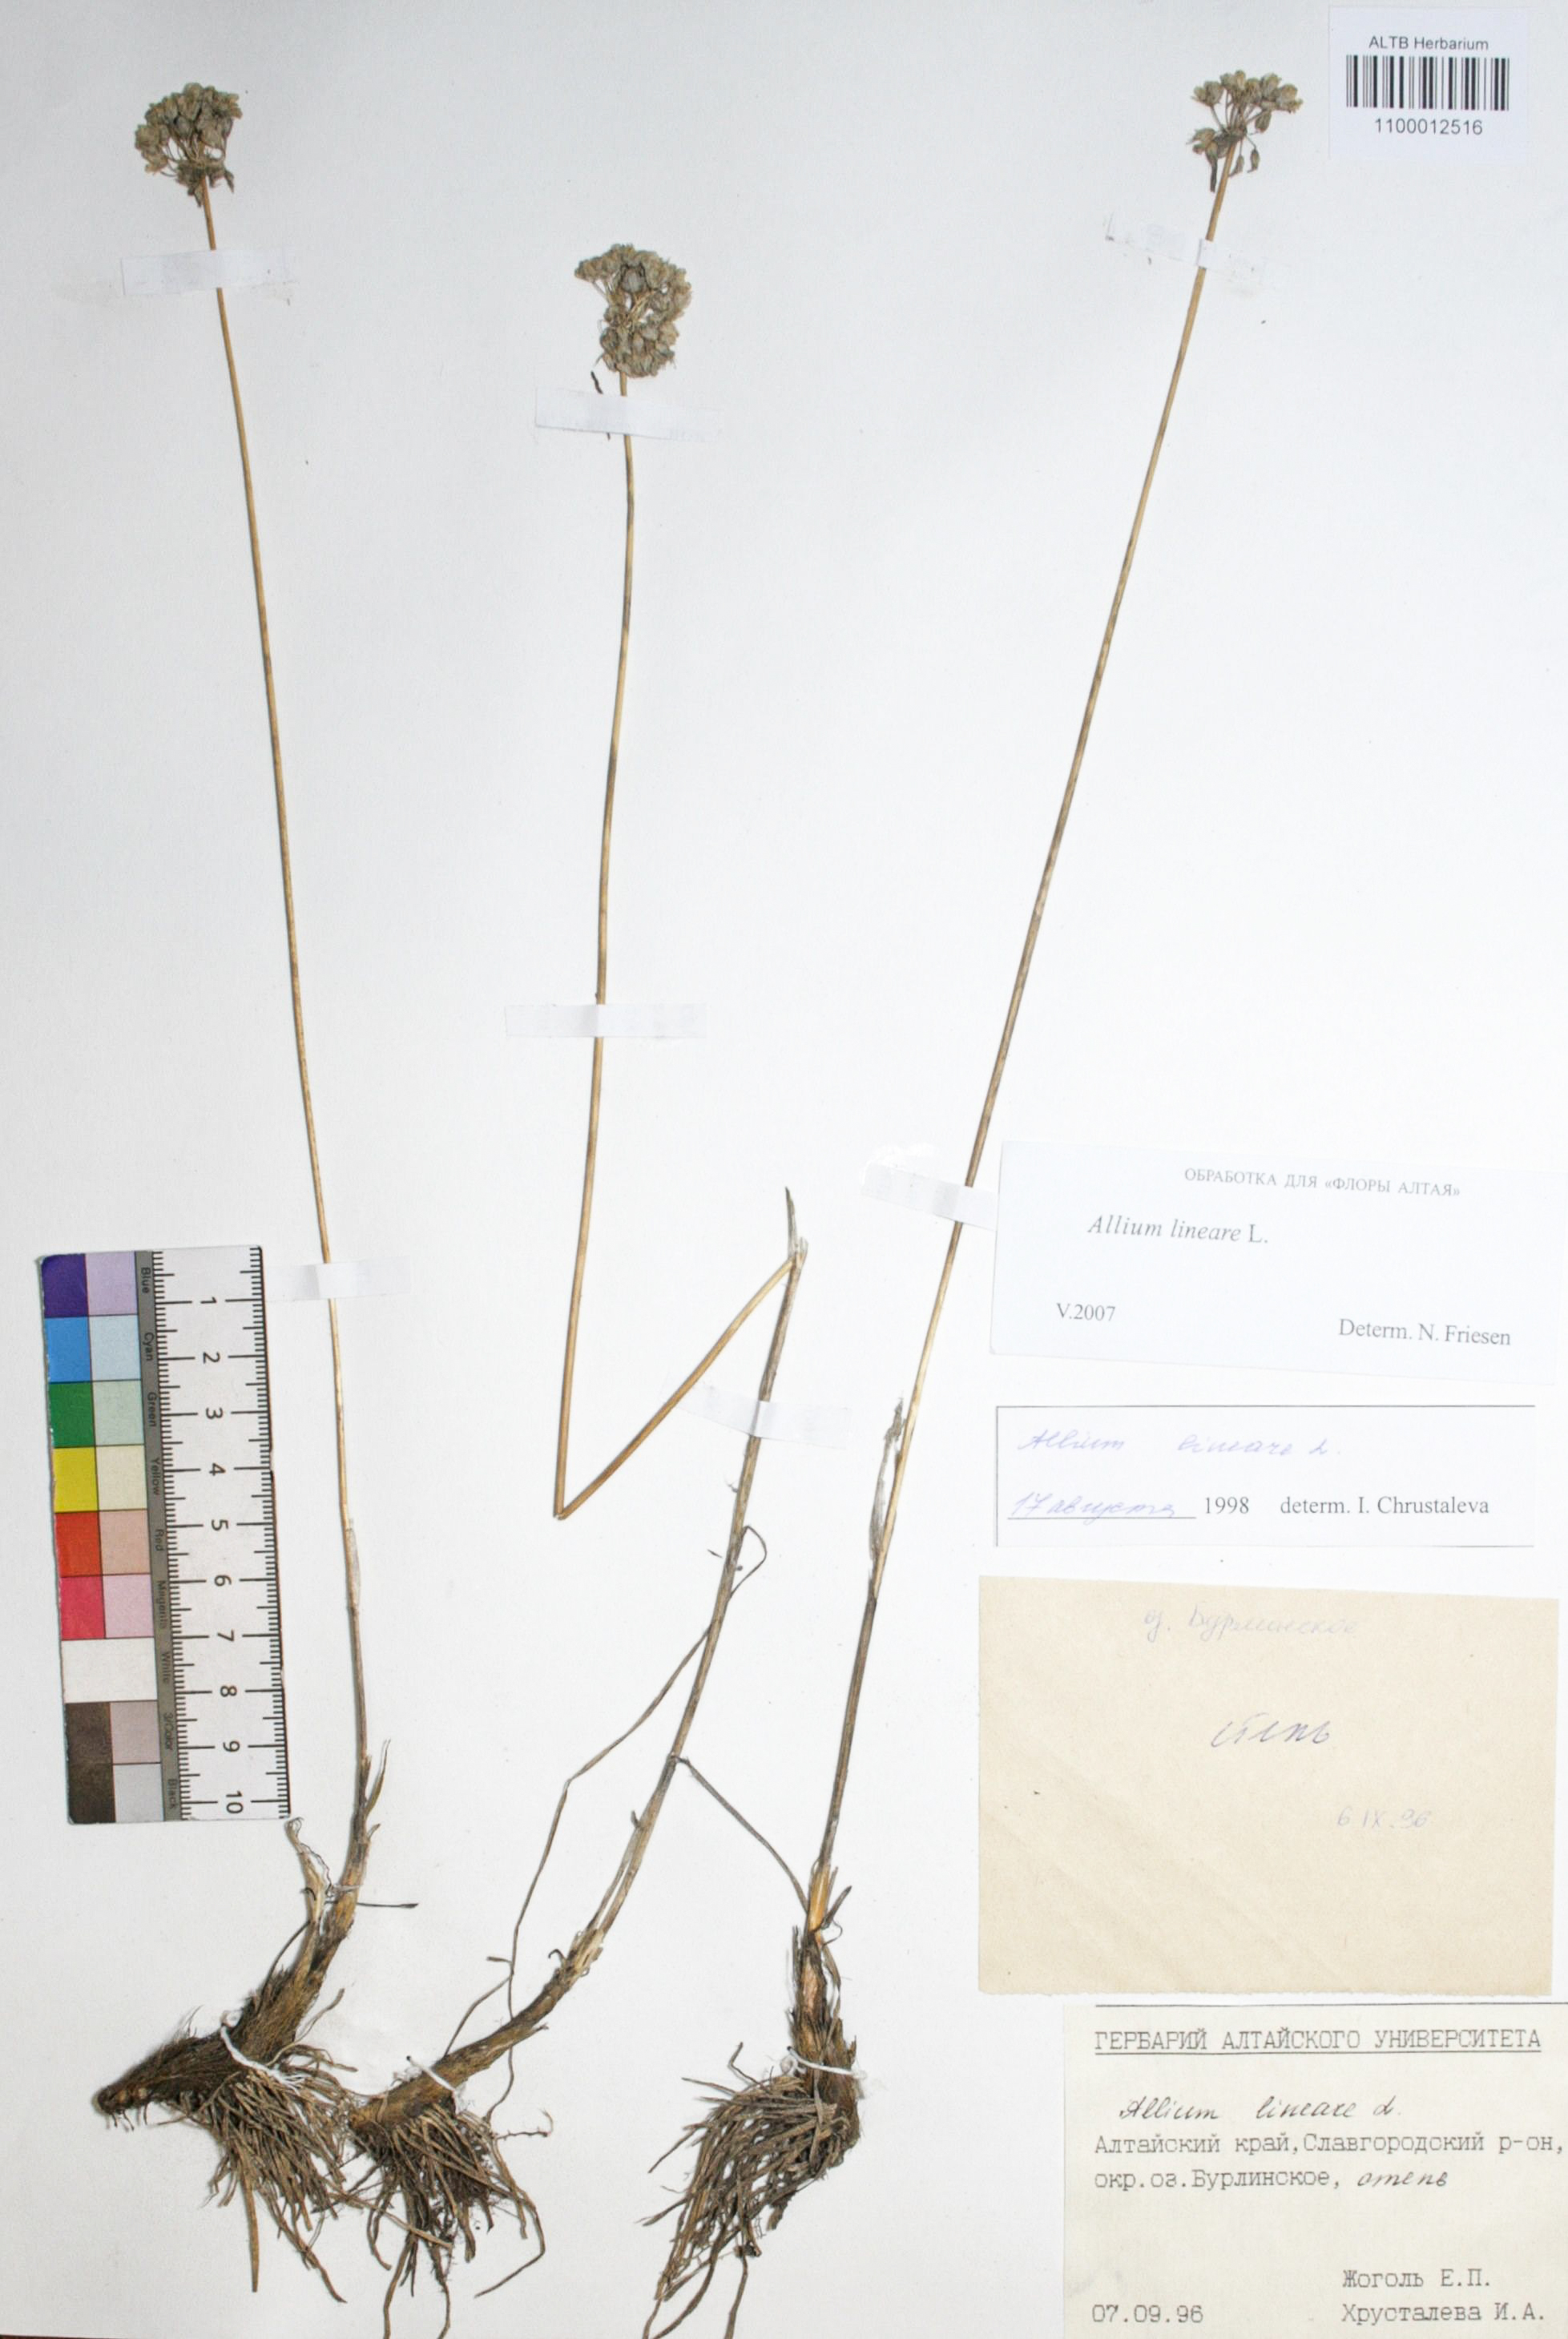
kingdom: Plantae
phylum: Tracheophyta
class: Liliopsida
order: Asparagales
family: Amaryllidaceae
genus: Allium
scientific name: Allium lineare
